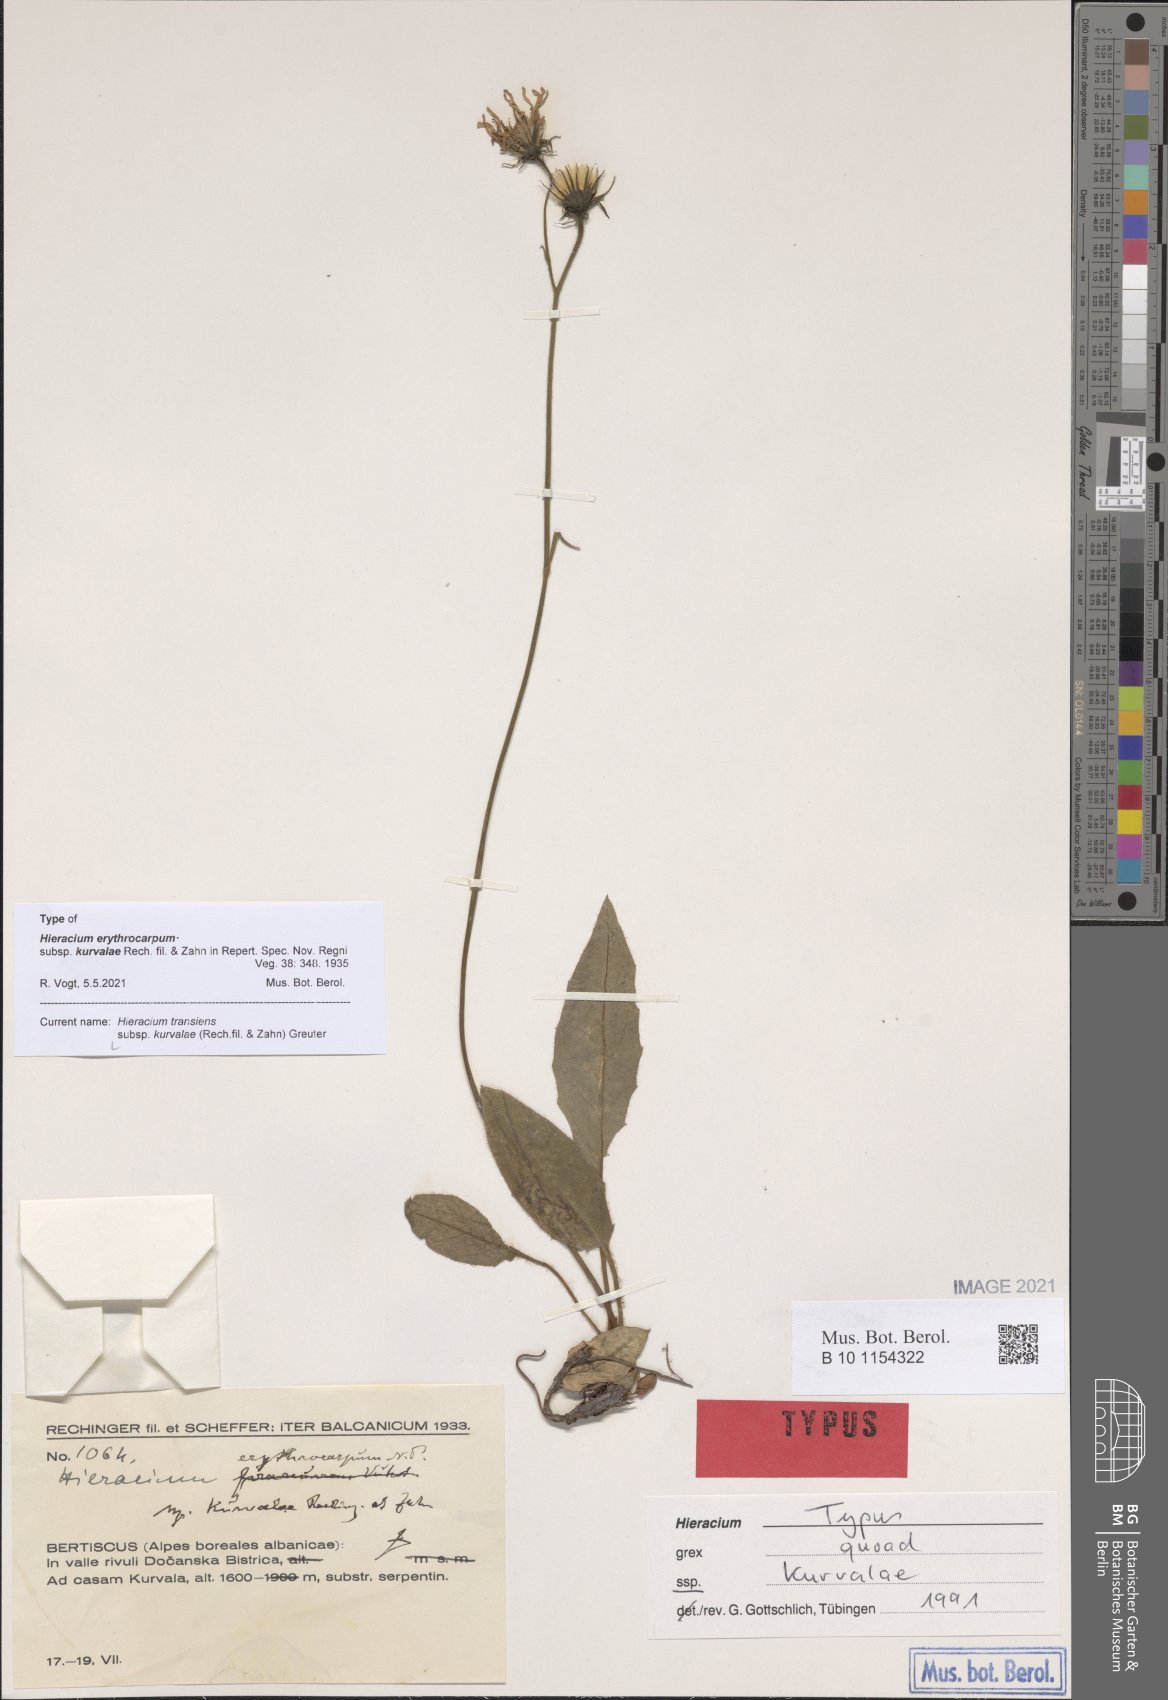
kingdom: Plantae
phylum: Tracheophyta
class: Magnoliopsida
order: Asterales
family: Asteraceae
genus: Hieracium
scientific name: Hieracium transiens
